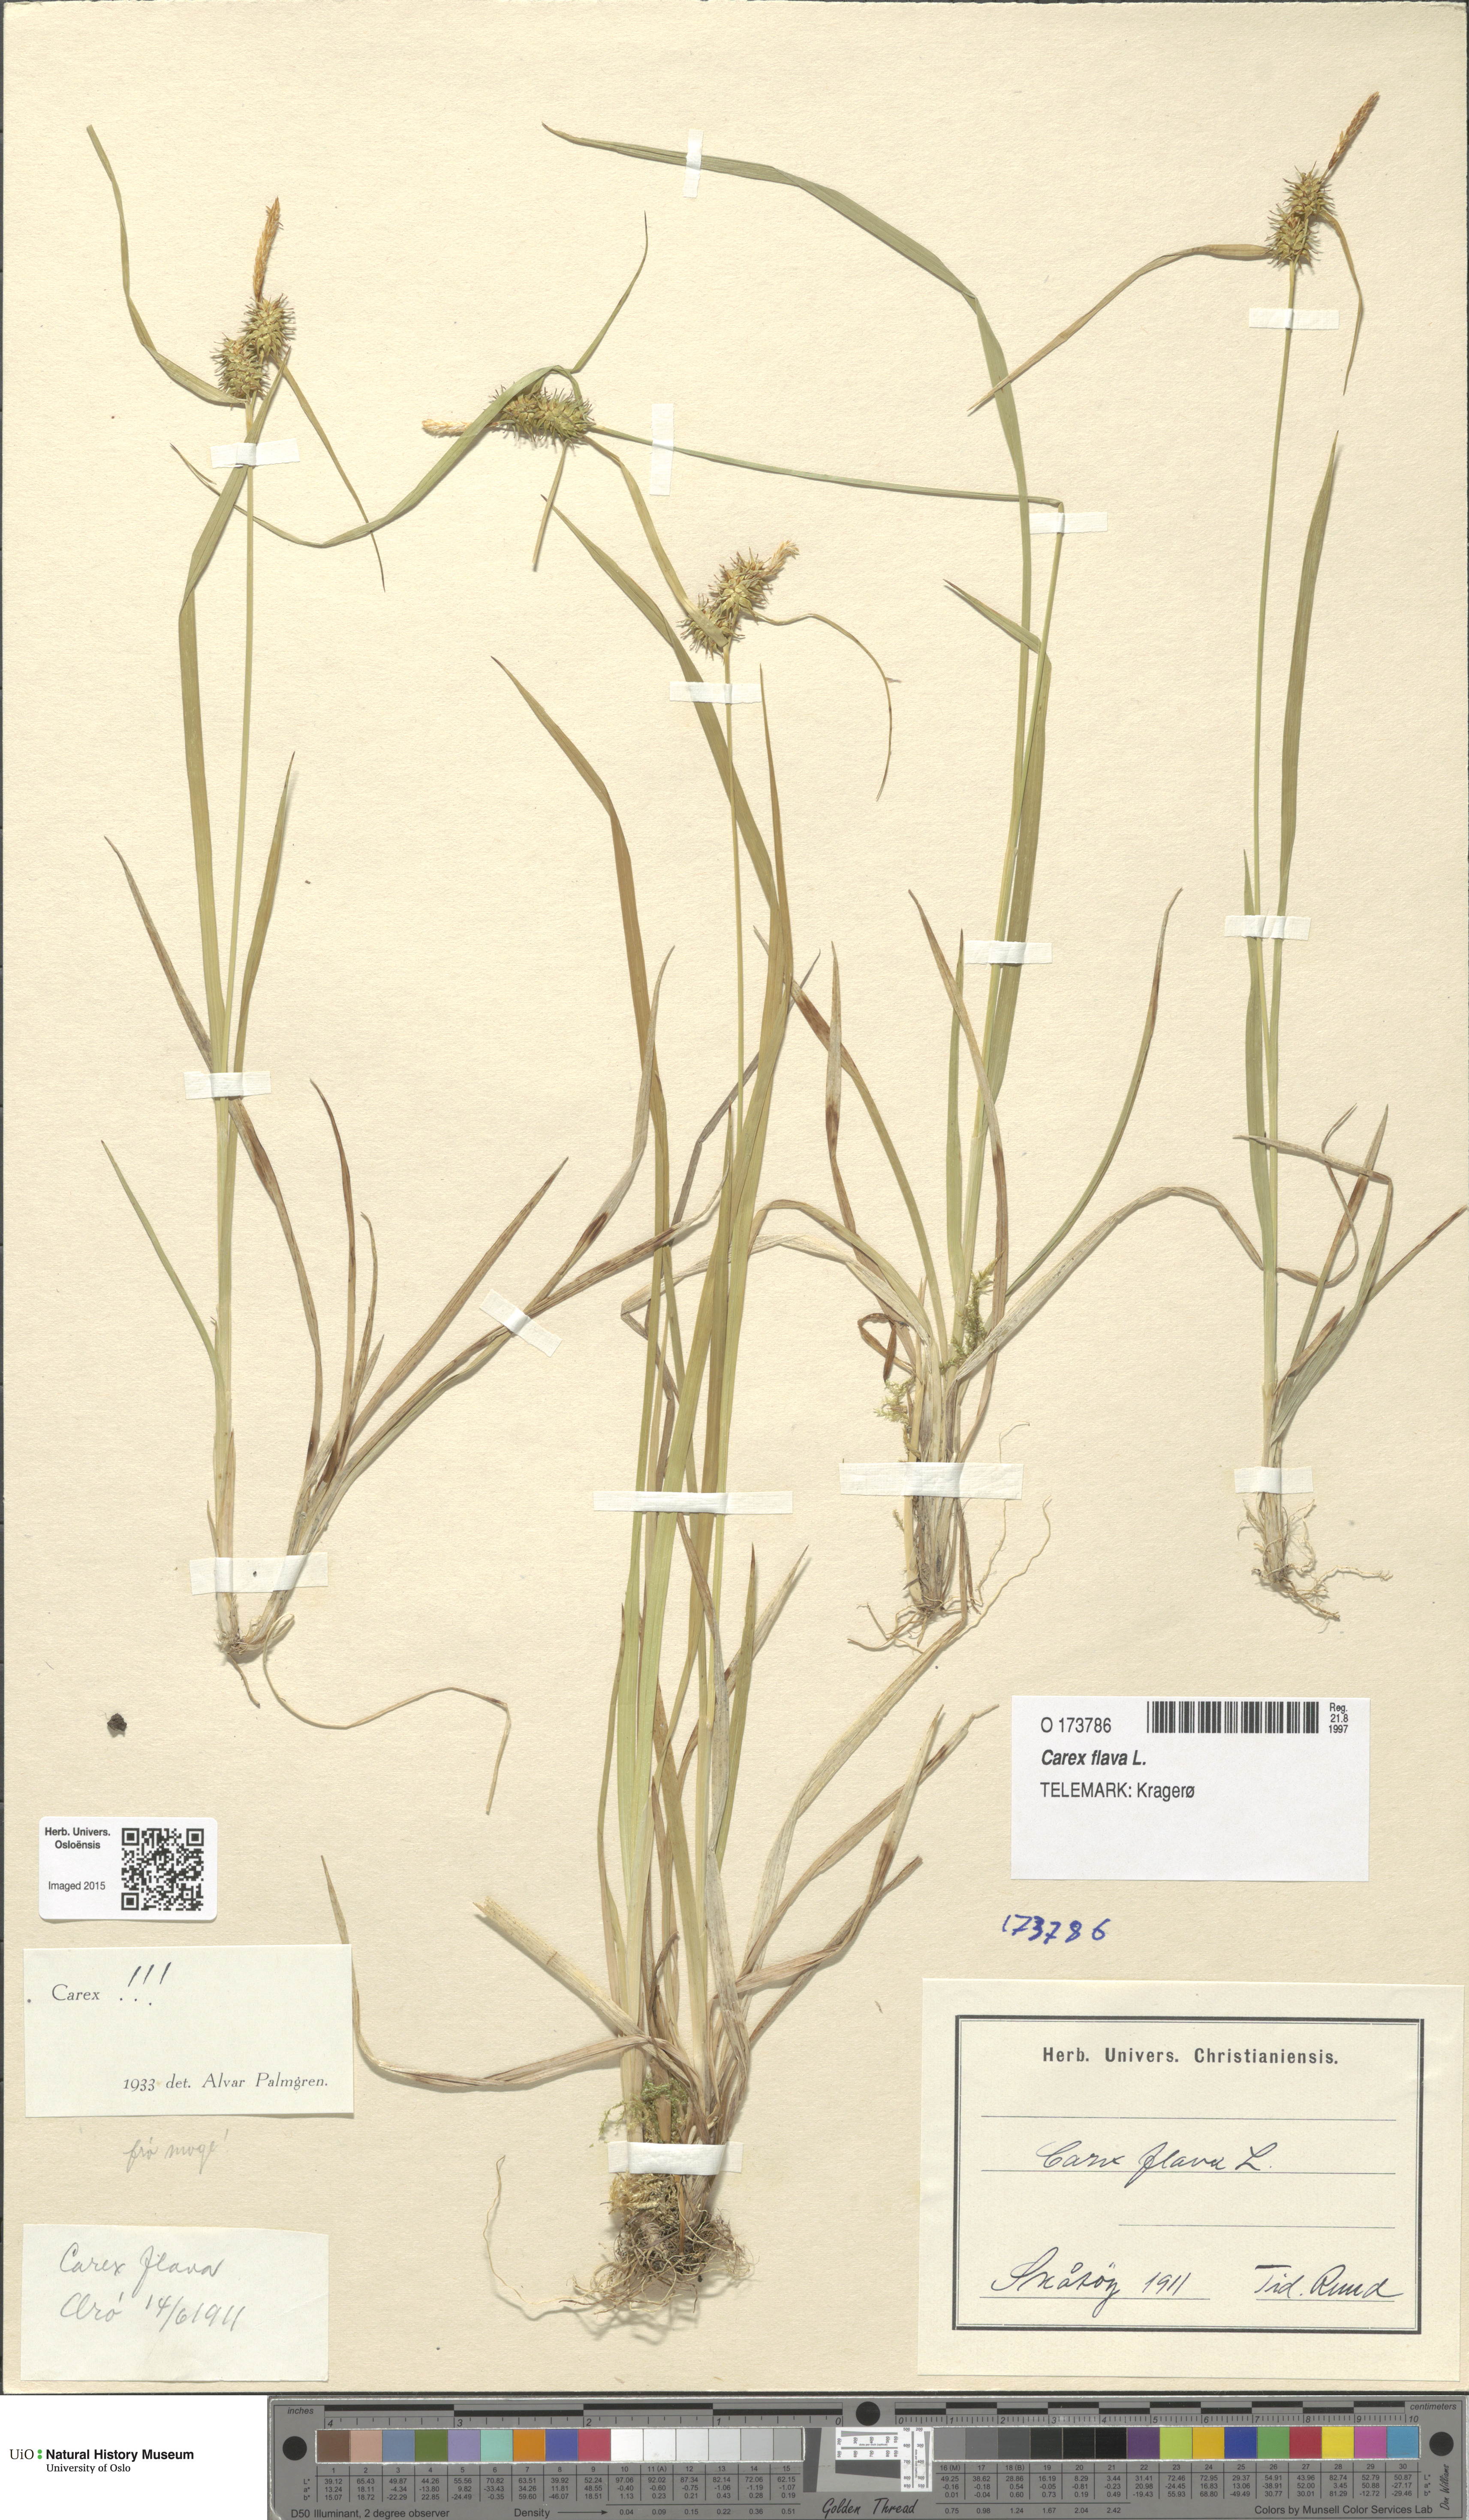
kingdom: Plantae
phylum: Tracheophyta
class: Liliopsida
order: Poales
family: Cyperaceae
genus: Carex
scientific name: Carex flava
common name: Large yellow-sedge
